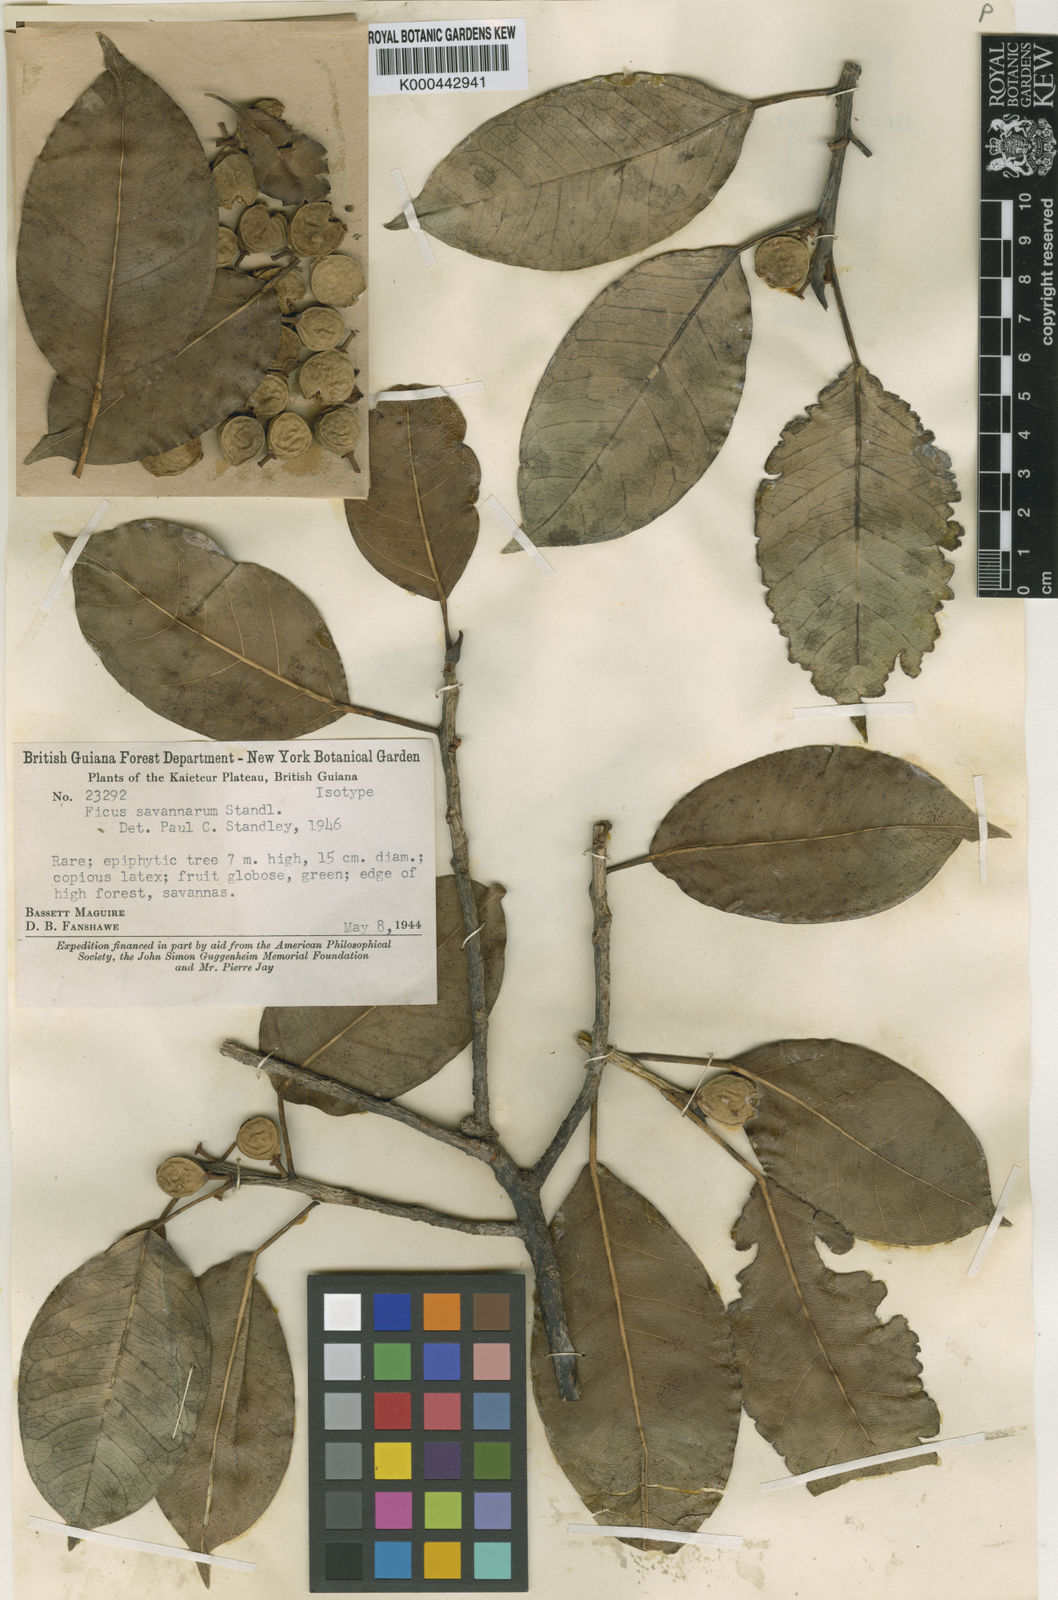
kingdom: Plantae
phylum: Tracheophyta
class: Magnoliopsida
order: Rosales
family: Moraceae
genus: Ficus
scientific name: Ficus broadwayi
